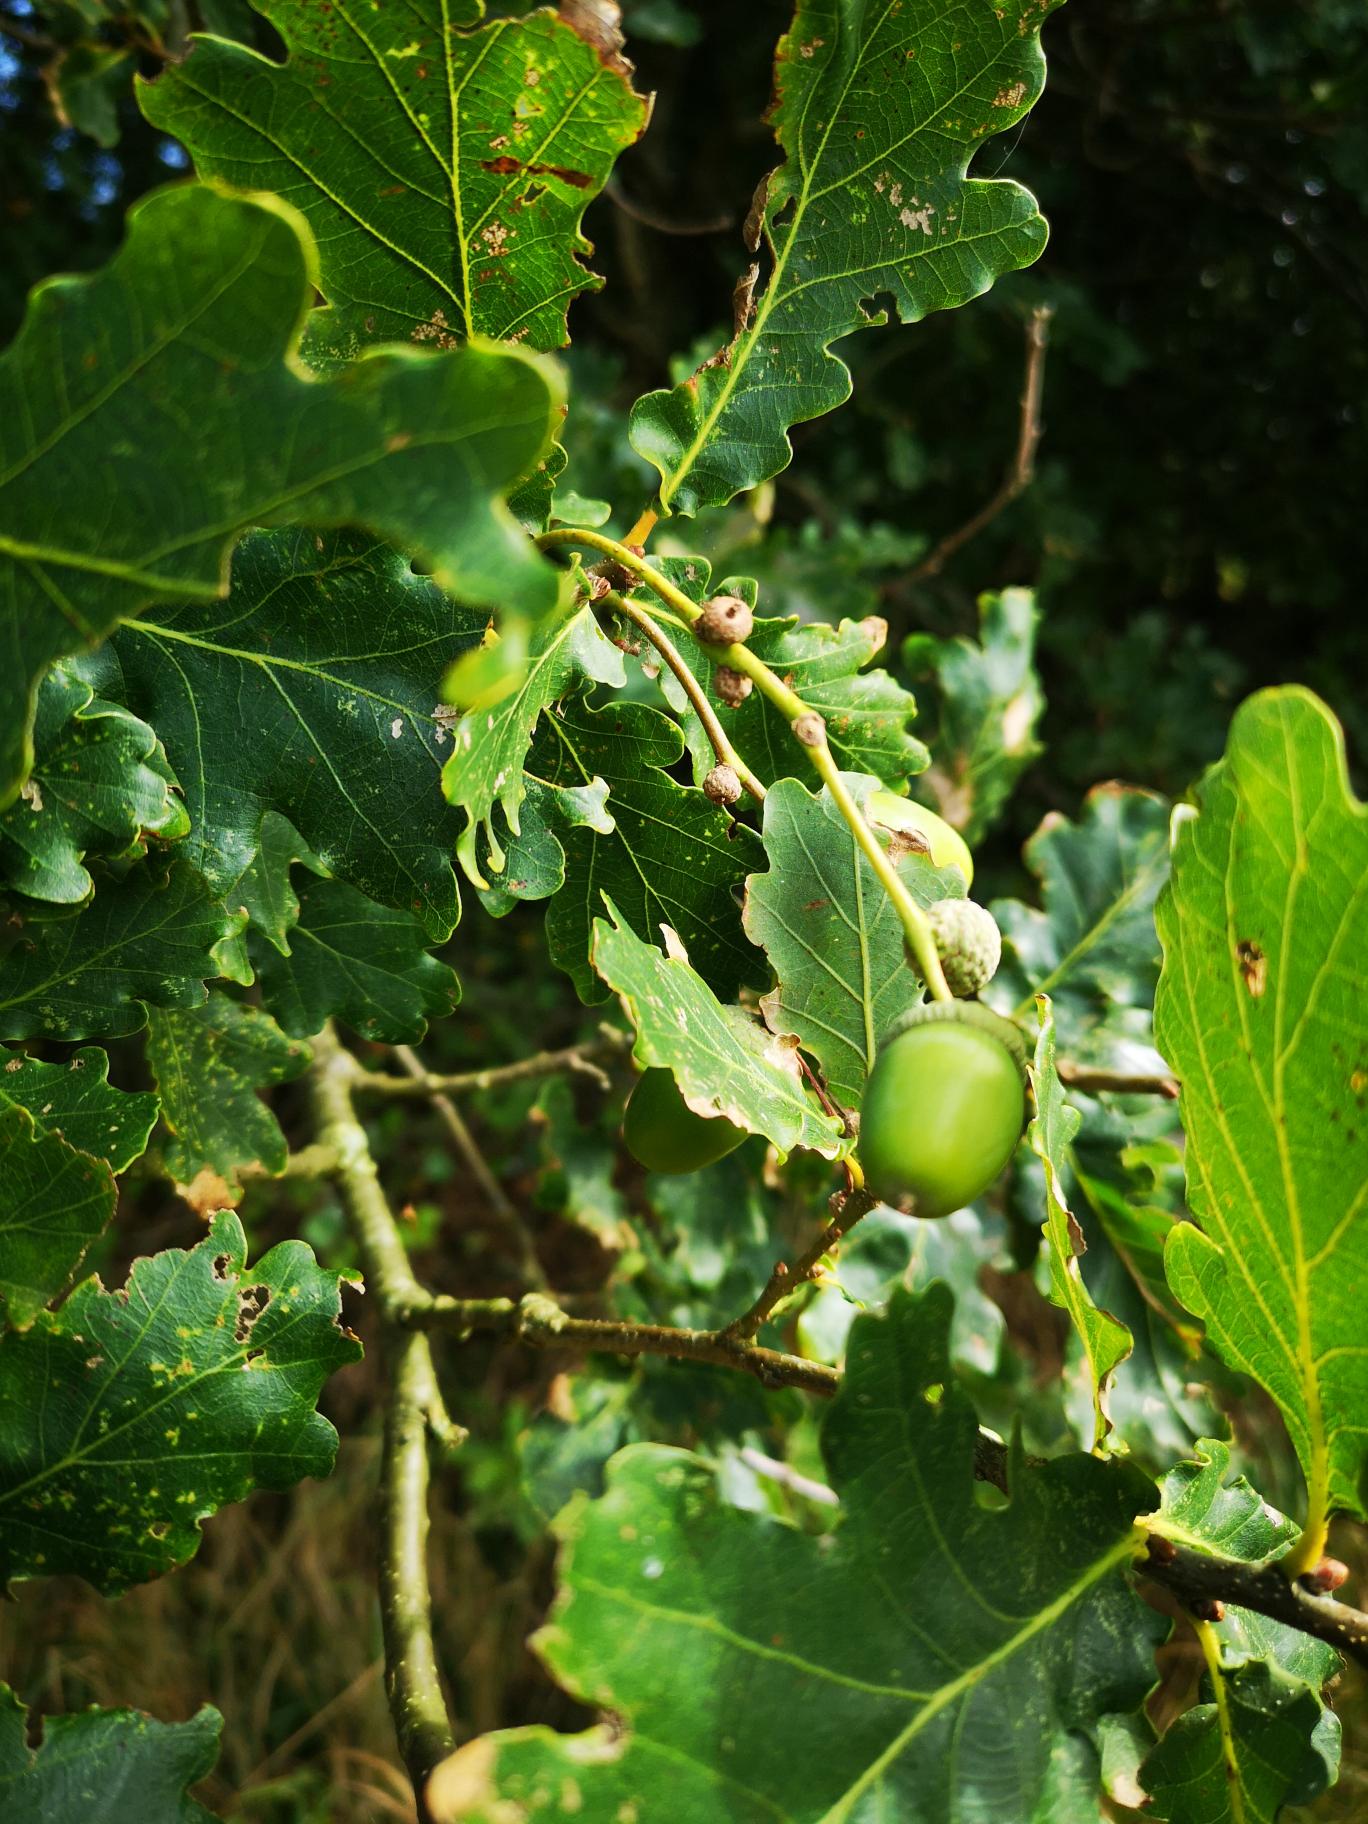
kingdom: Plantae
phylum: Tracheophyta
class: Magnoliopsida
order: Fagales
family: Fagaceae
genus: Quercus
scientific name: Quercus robur
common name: Stilk-eg/almindelig eg
